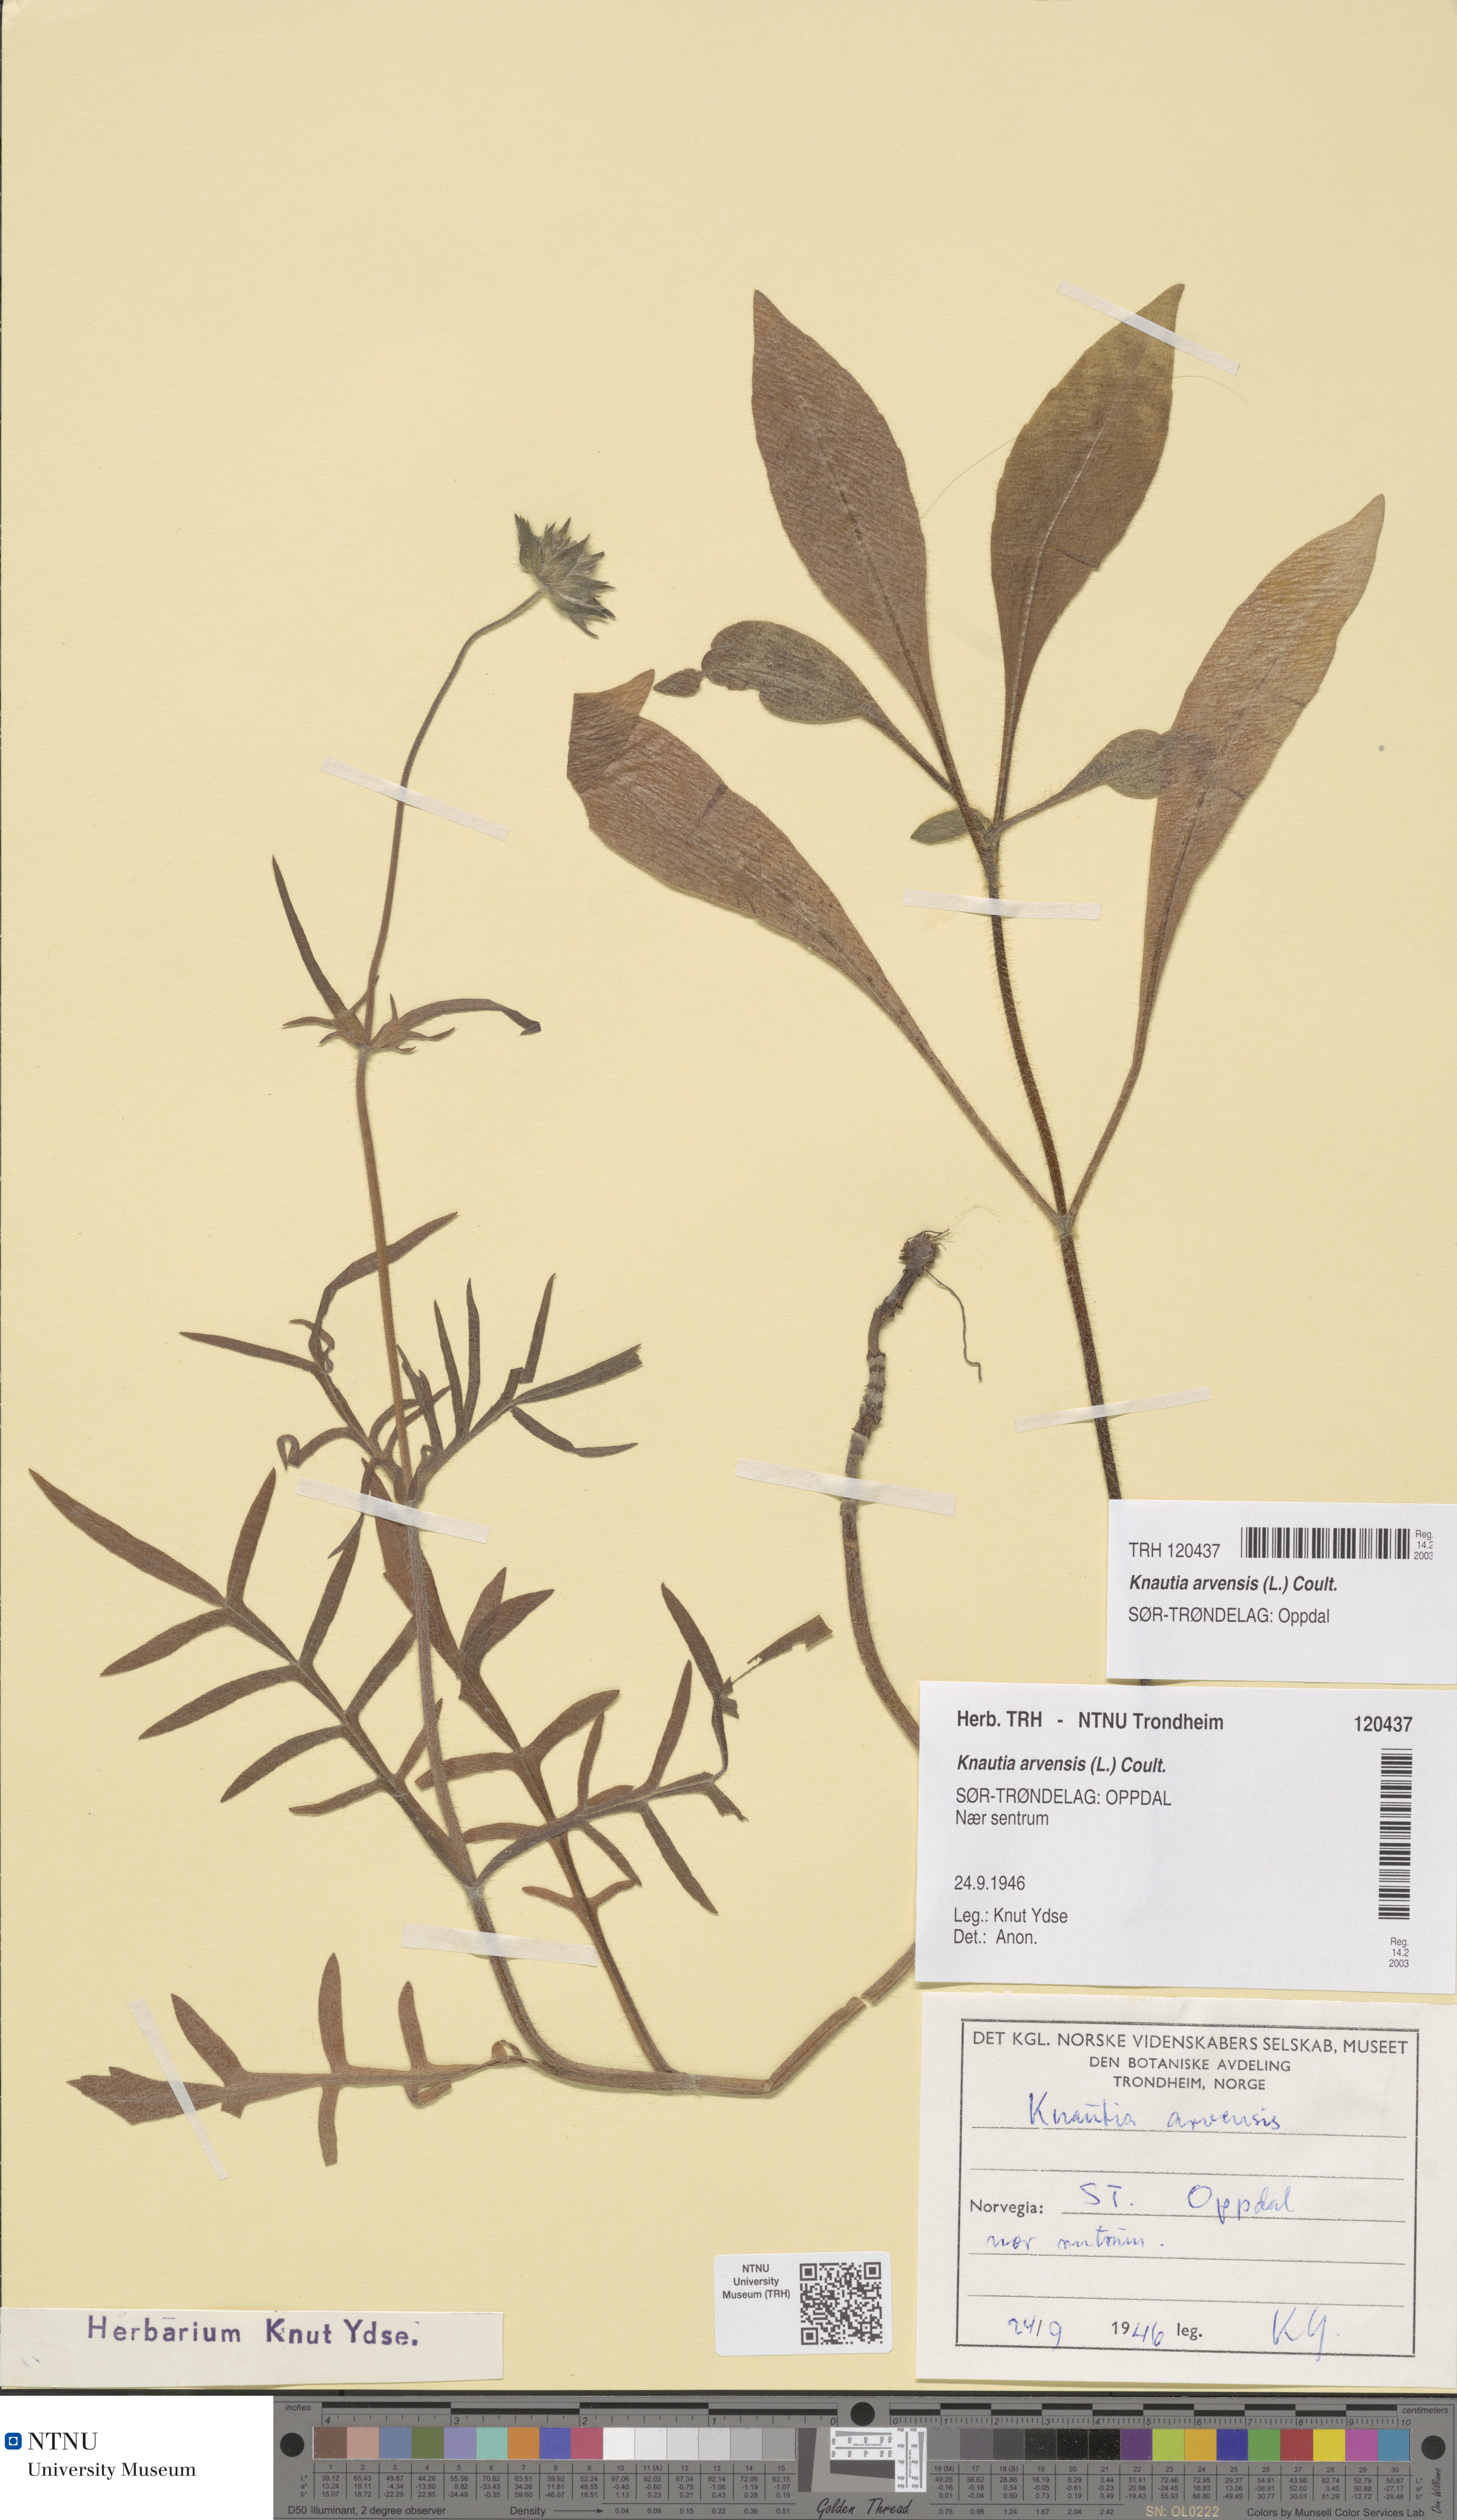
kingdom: Plantae
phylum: Tracheophyta
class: Magnoliopsida
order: Dipsacales
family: Caprifoliaceae
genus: Knautia
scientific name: Knautia arvensis
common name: Field scabiosa
